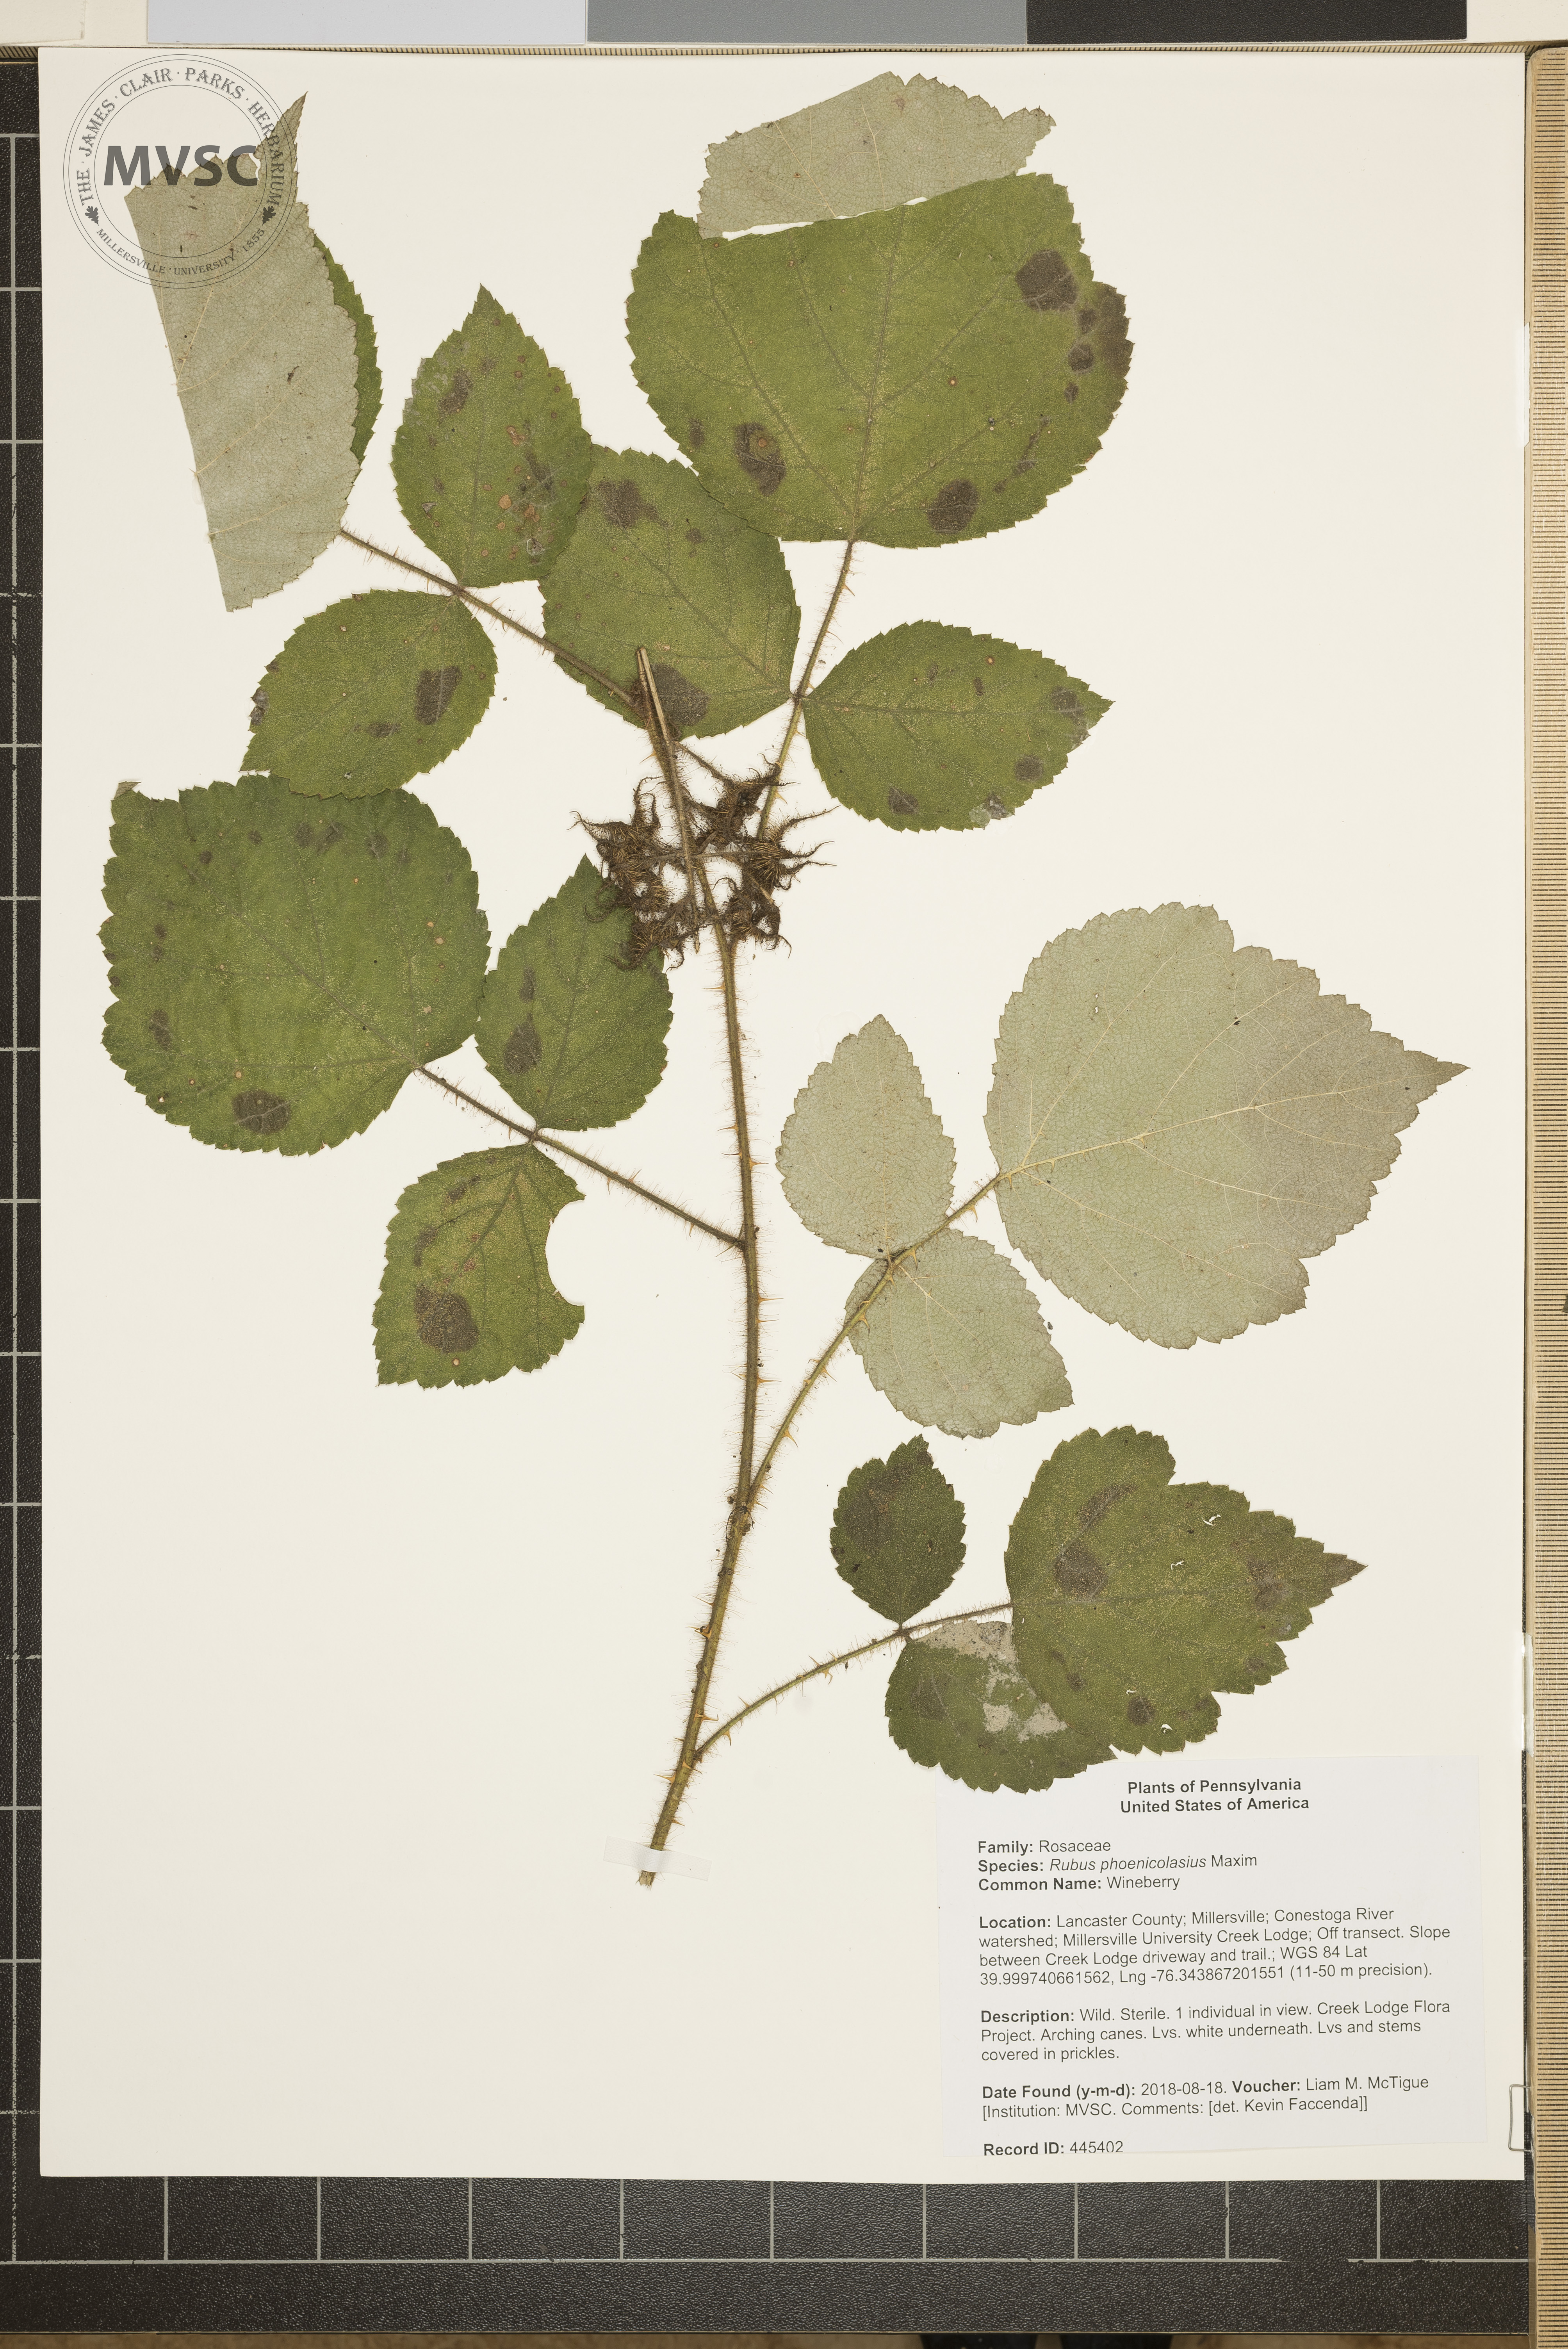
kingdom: Plantae
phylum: Tracheophyta
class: Magnoliopsida
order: Rosales
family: Rosaceae
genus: Rubus
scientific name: Rubus phoenicolasius
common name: Wineberry
